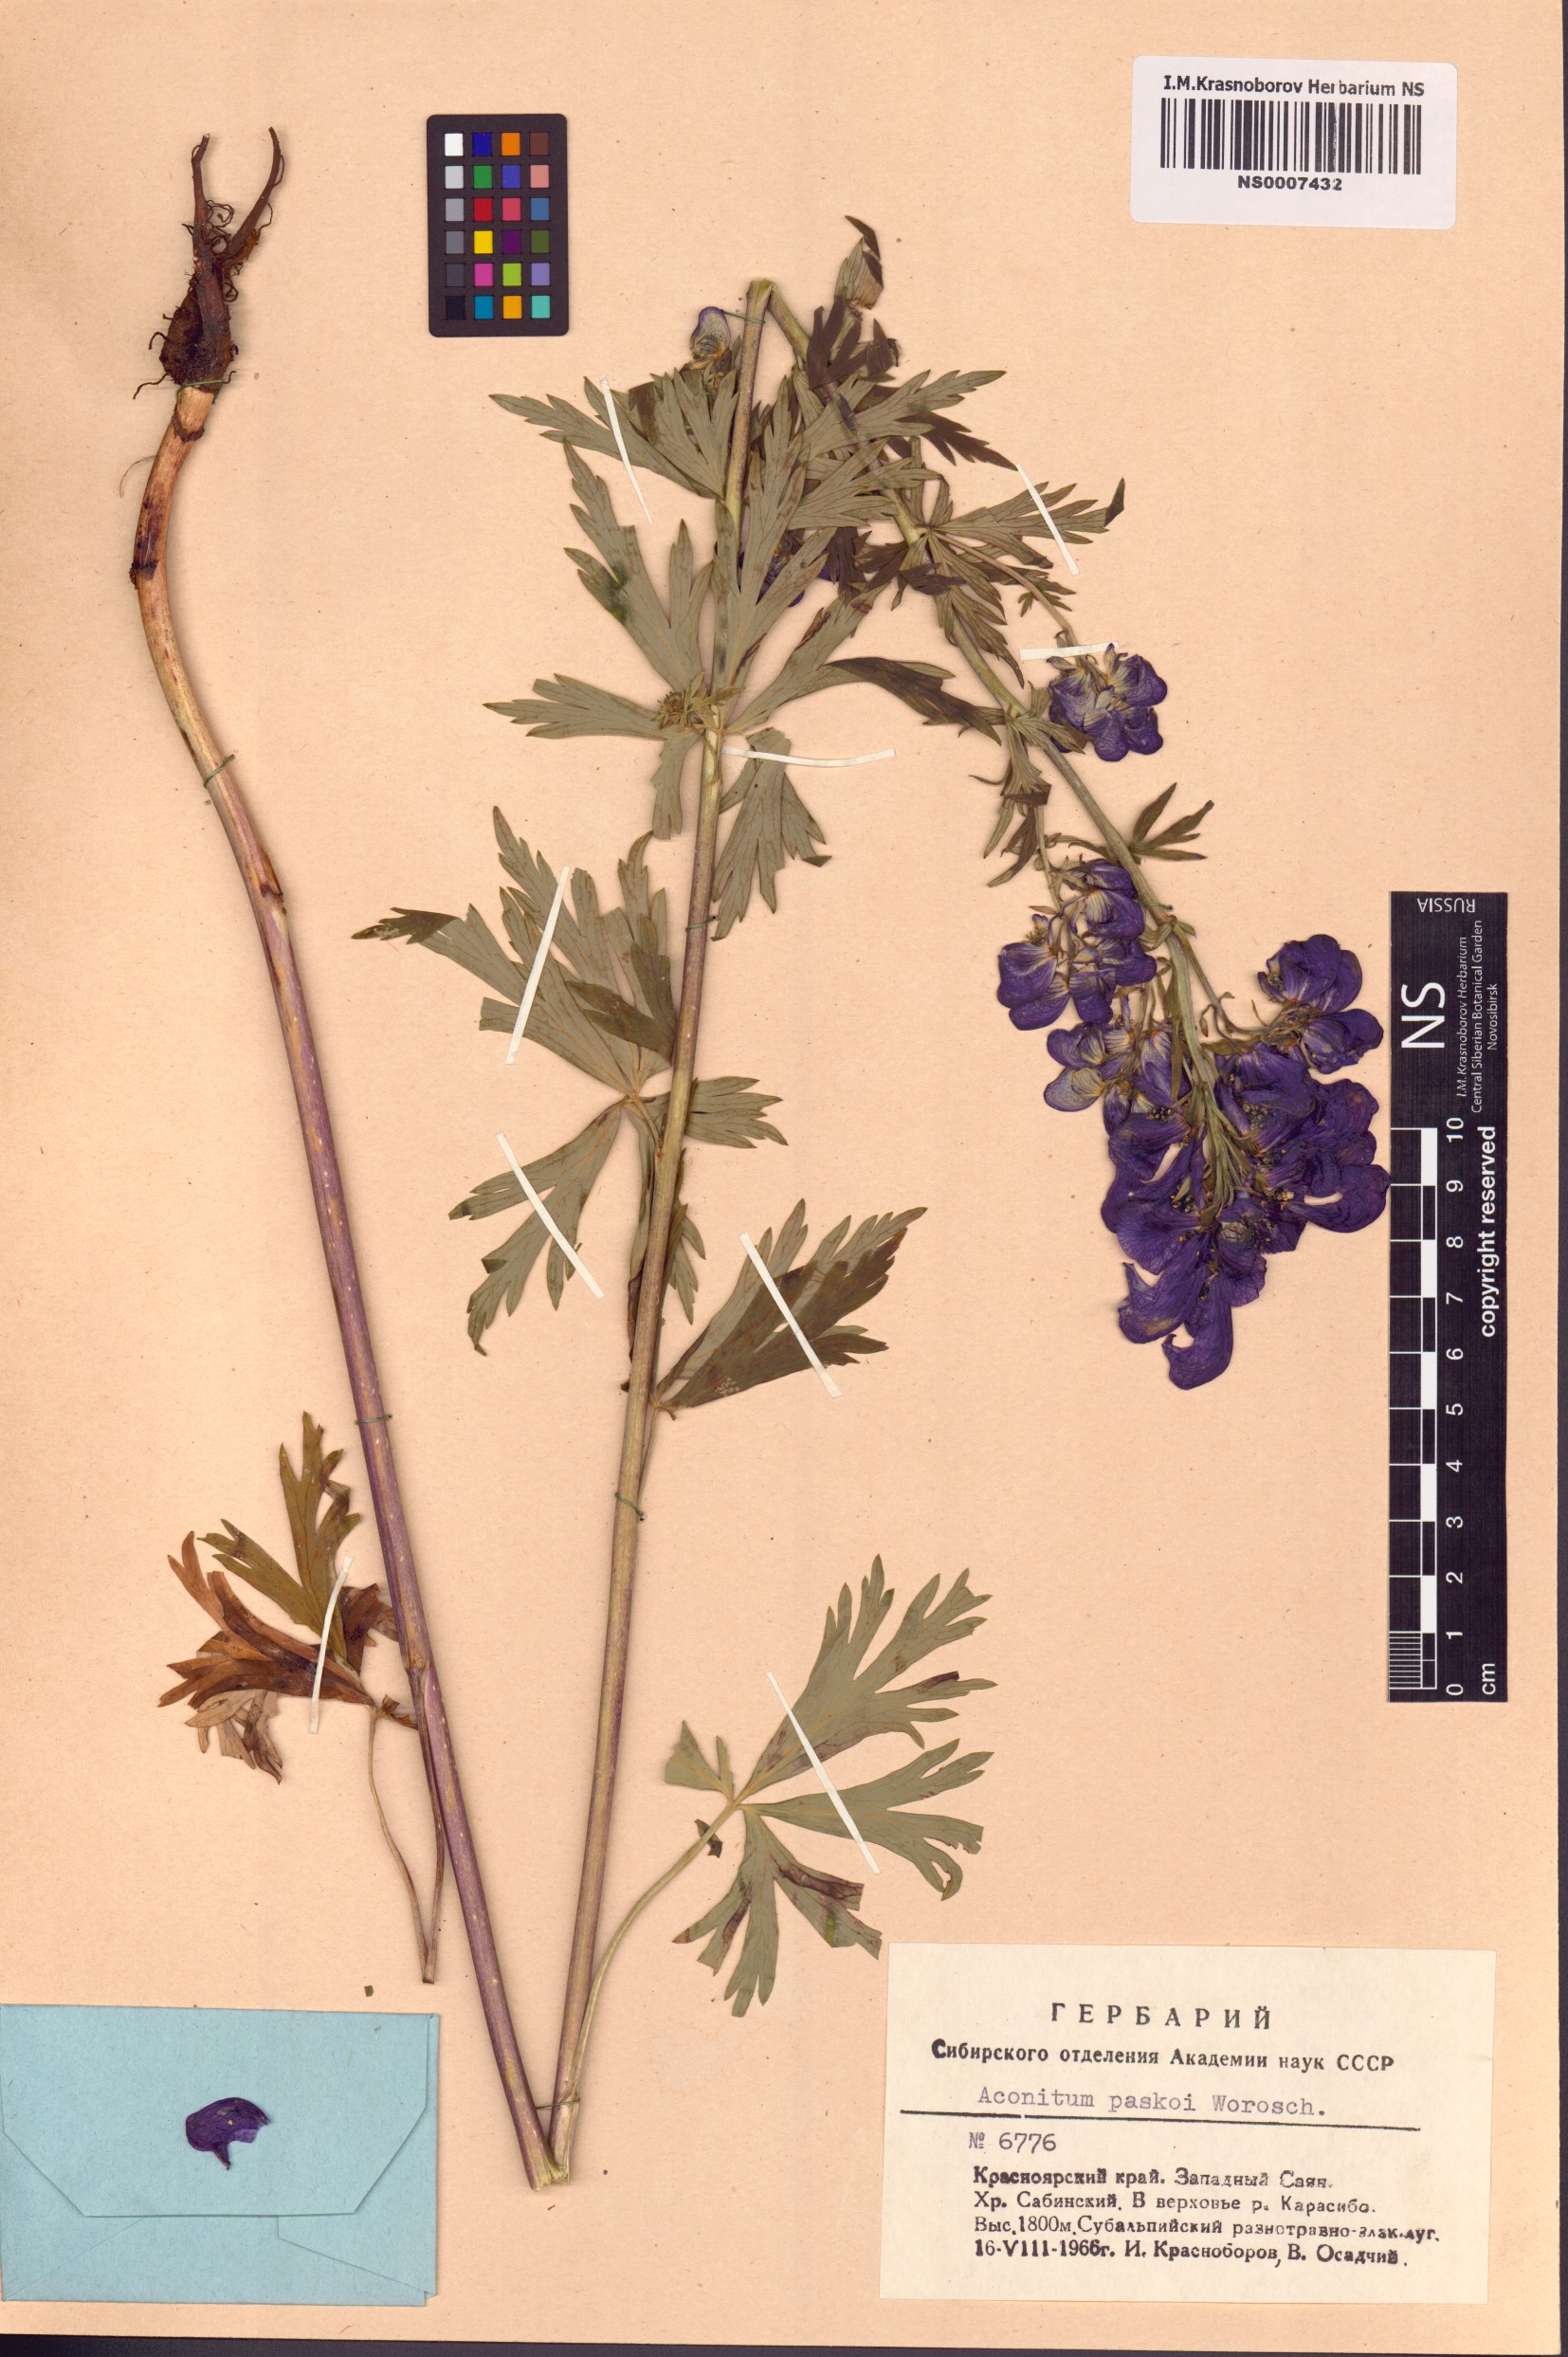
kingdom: Plantae
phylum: Tracheophyta
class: Magnoliopsida
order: Ranunculales
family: Ranunculaceae
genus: Aconitum
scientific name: Aconitum pascoi
